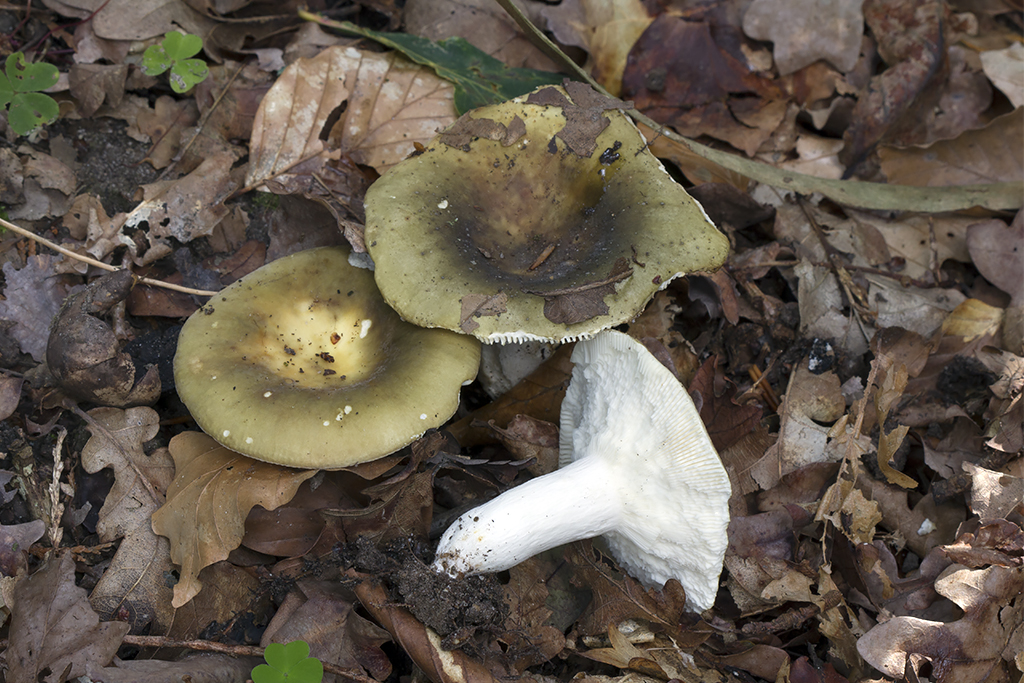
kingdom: Fungi
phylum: Basidiomycota
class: Agaricomycetes
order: Russulales
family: Russulaceae
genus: Russula
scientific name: Russula heterophylla
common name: gaffelbladet skørhat
